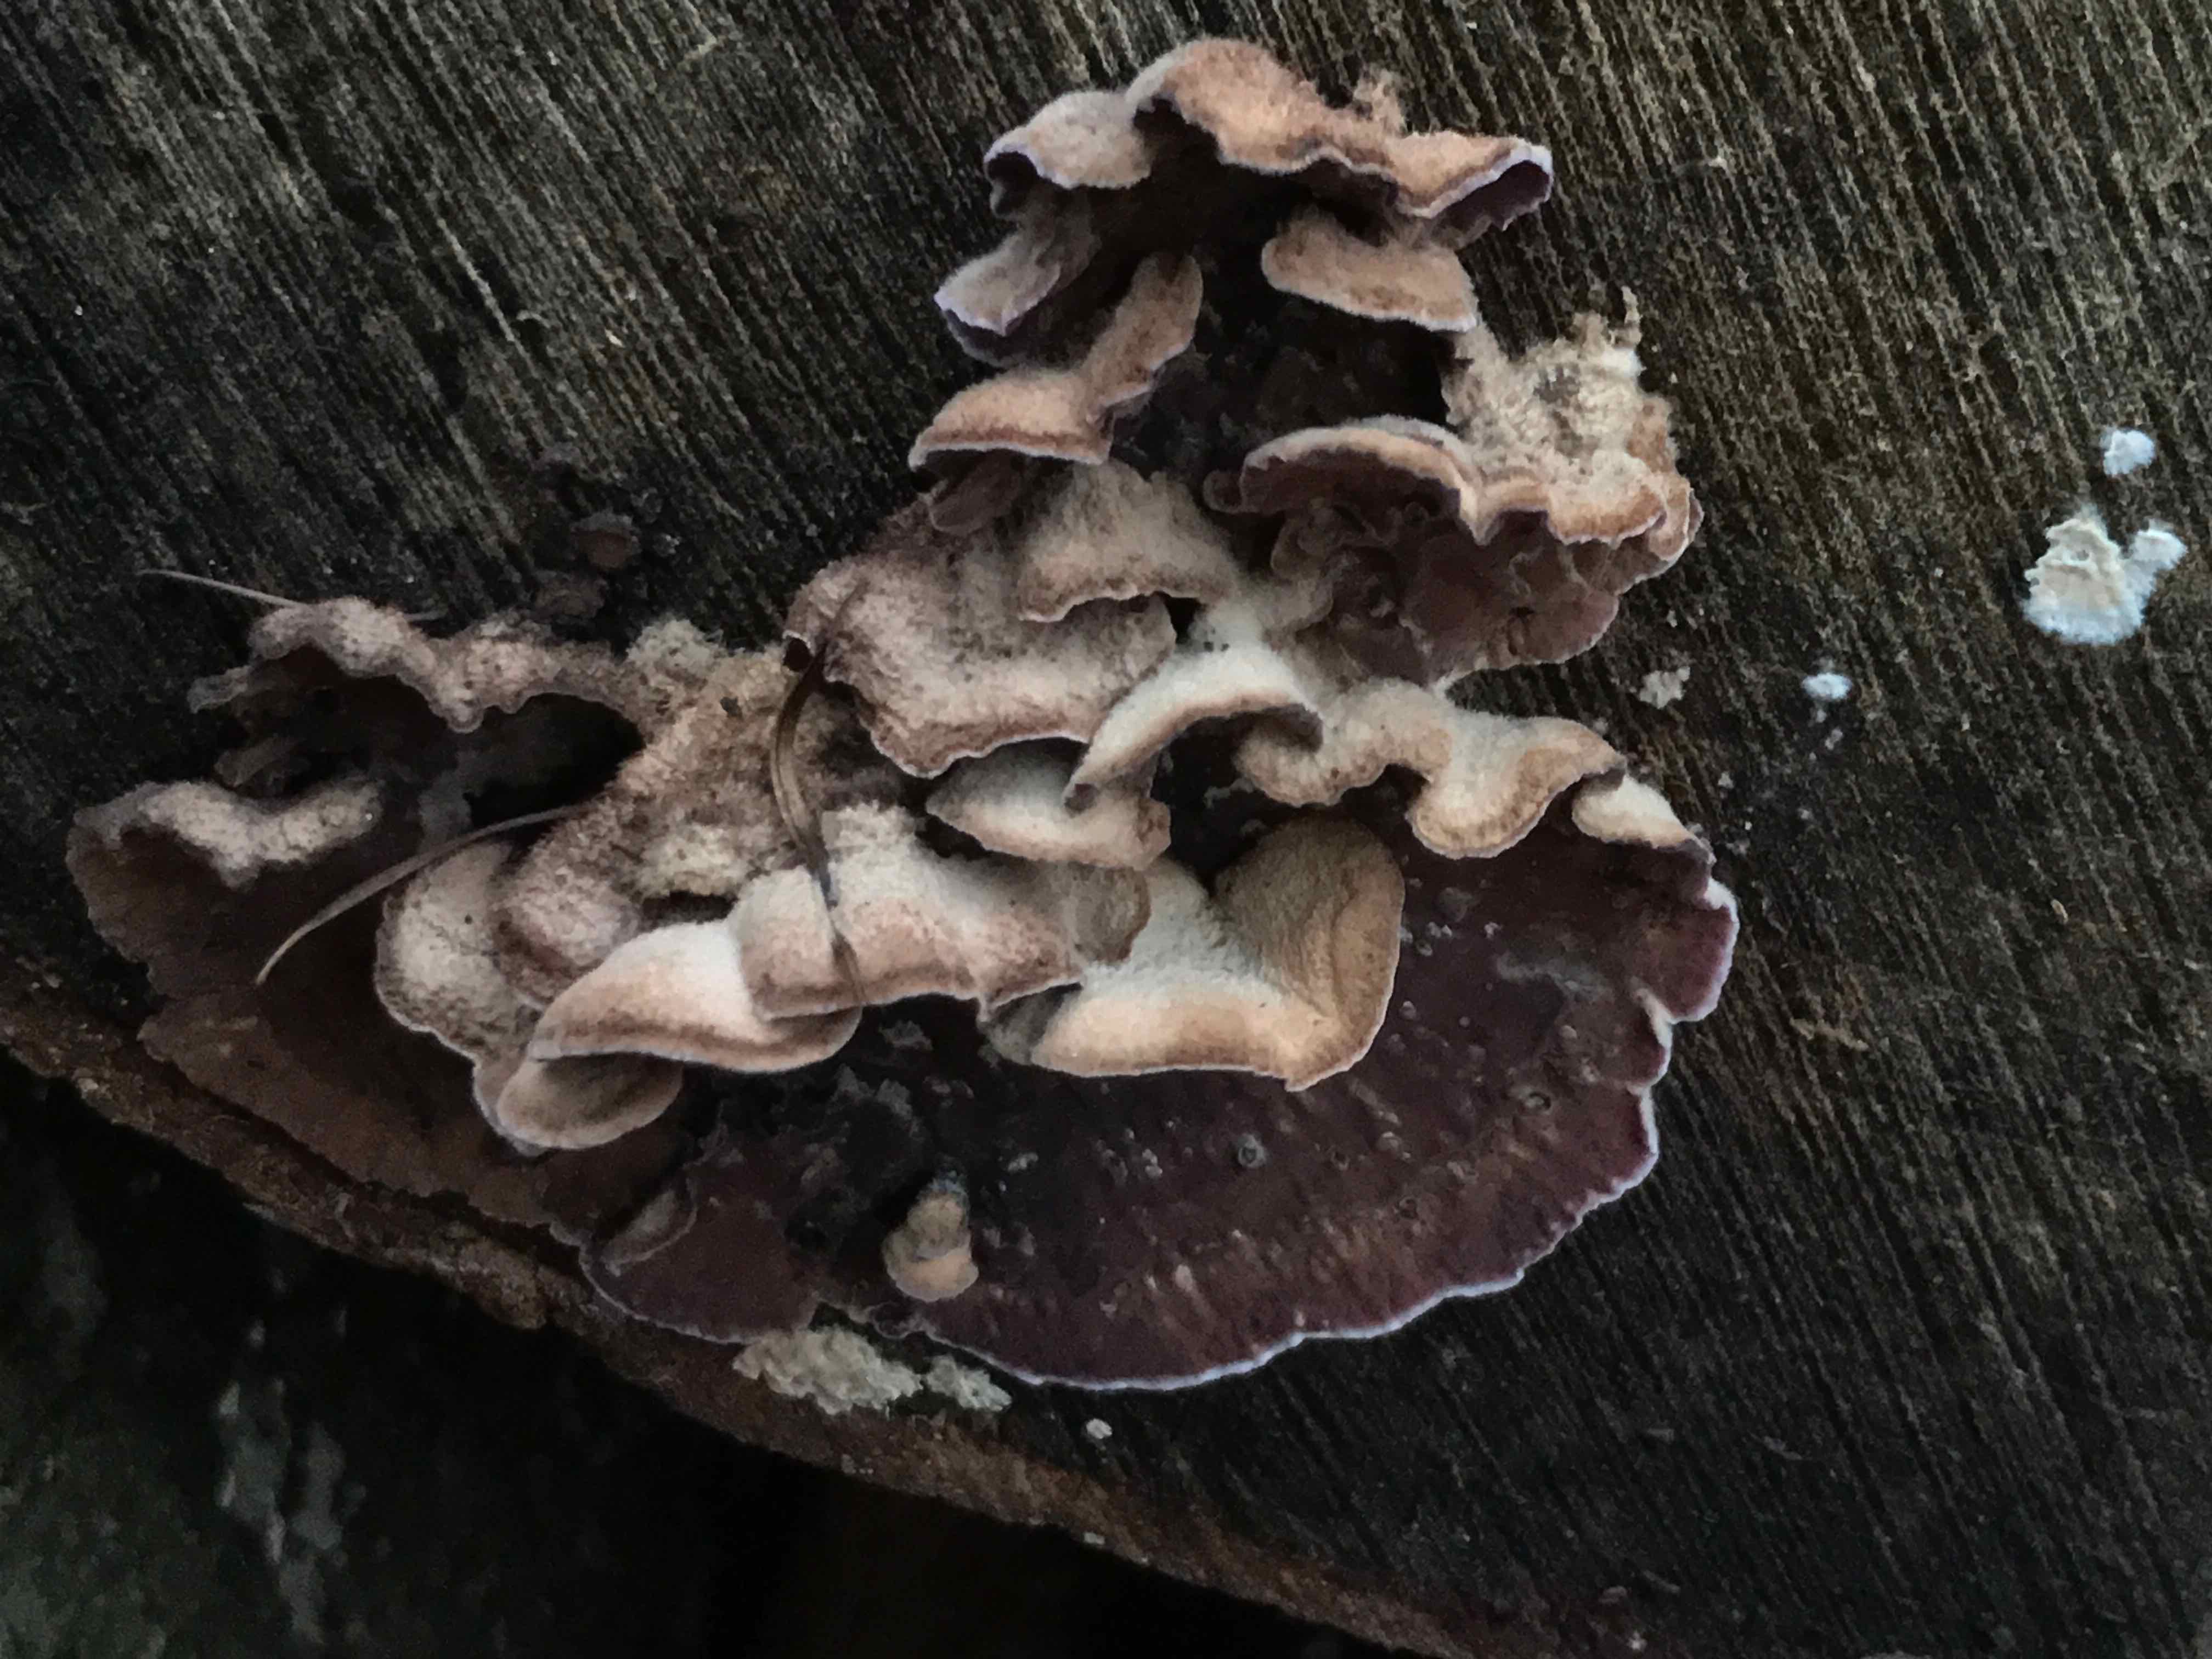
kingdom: Fungi
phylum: Basidiomycota
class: Agaricomycetes
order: Agaricales
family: Cyphellaceae
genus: Chondrostereum
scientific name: Chondrostereum purpureum
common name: purpurlædersvamp
